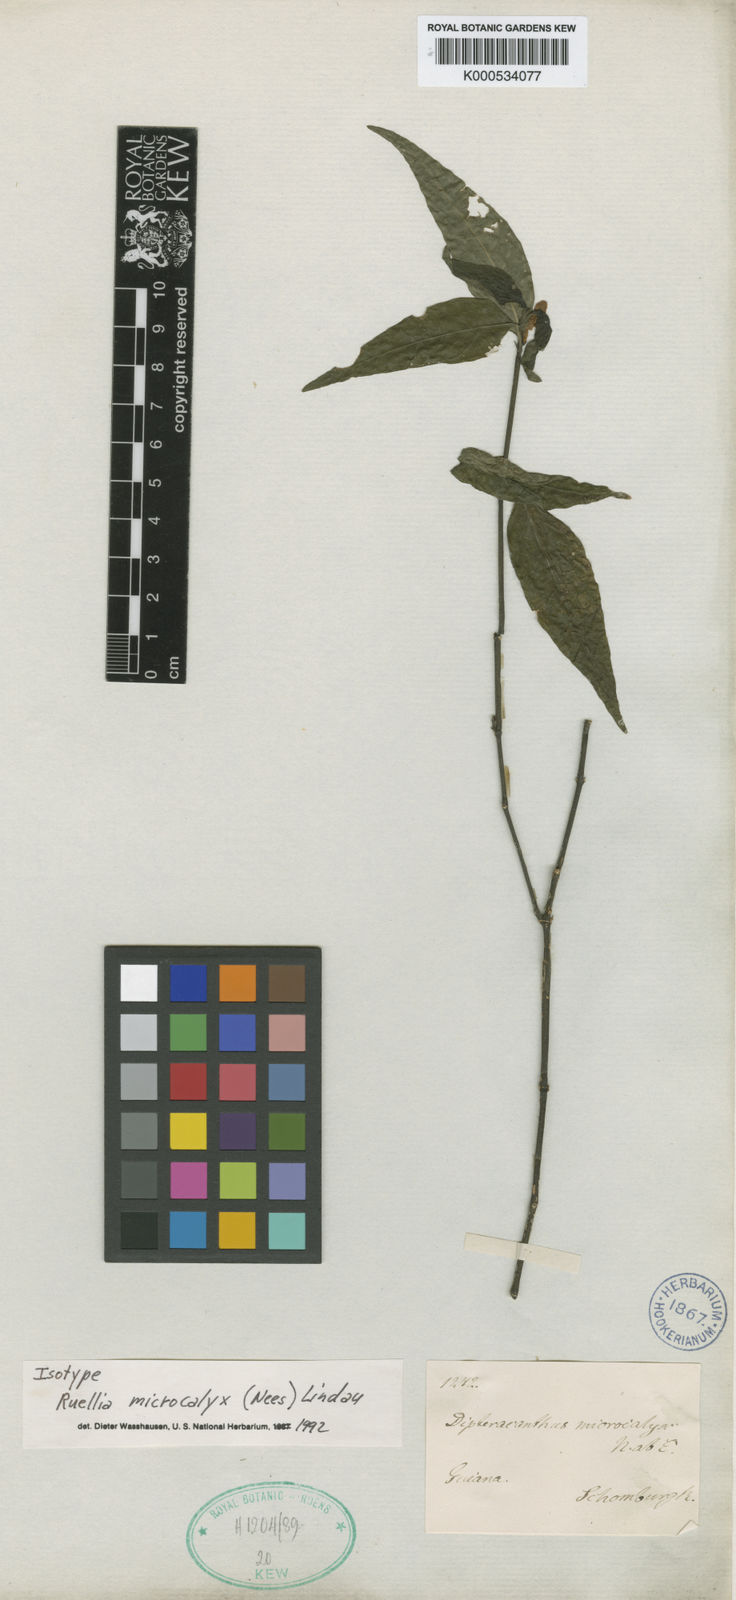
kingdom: Plantae
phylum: Tracheophyta
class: Magnoliopsida
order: Lamiales
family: Acanthaceae
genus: Ruellia
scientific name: Ruellia microcalyx
